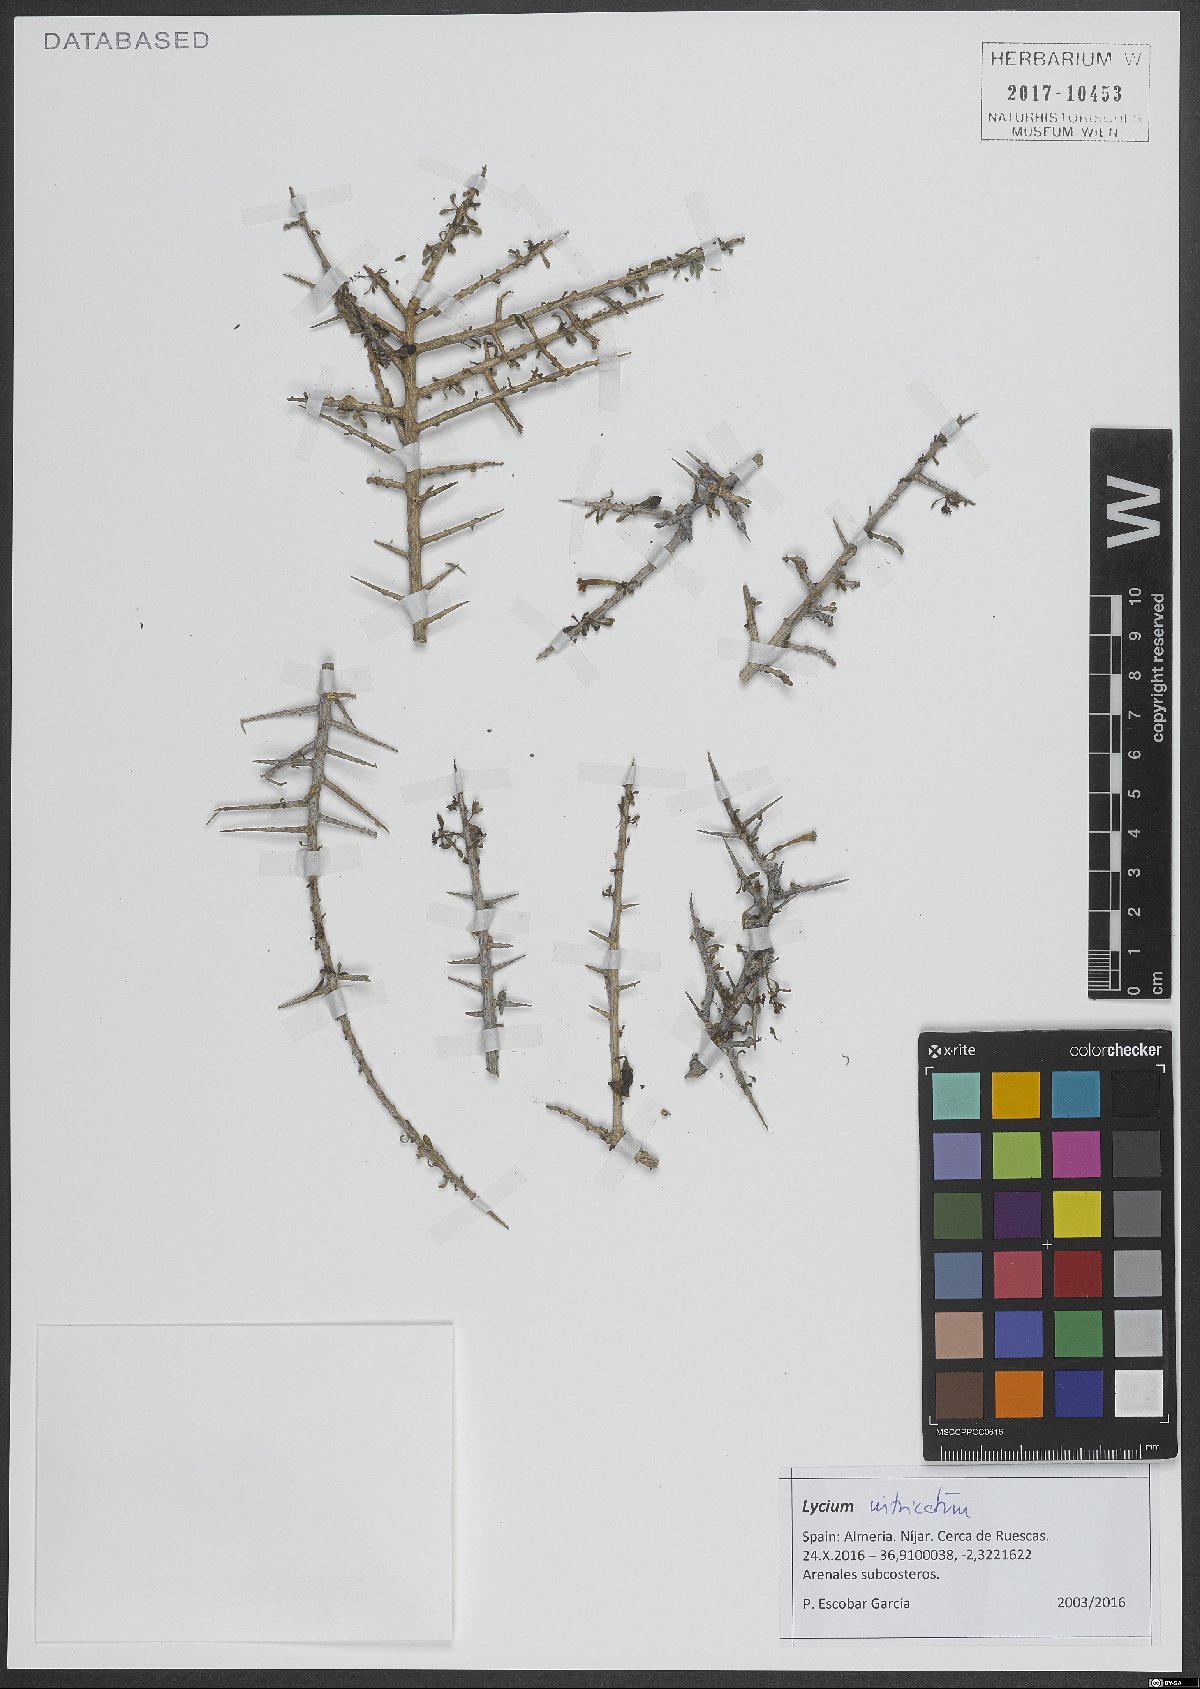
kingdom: Plantae
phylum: Tracheophyta
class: Magnoliopsida
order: Solanales
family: Solanaceae
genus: Lycium
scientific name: Lycium intricatum
